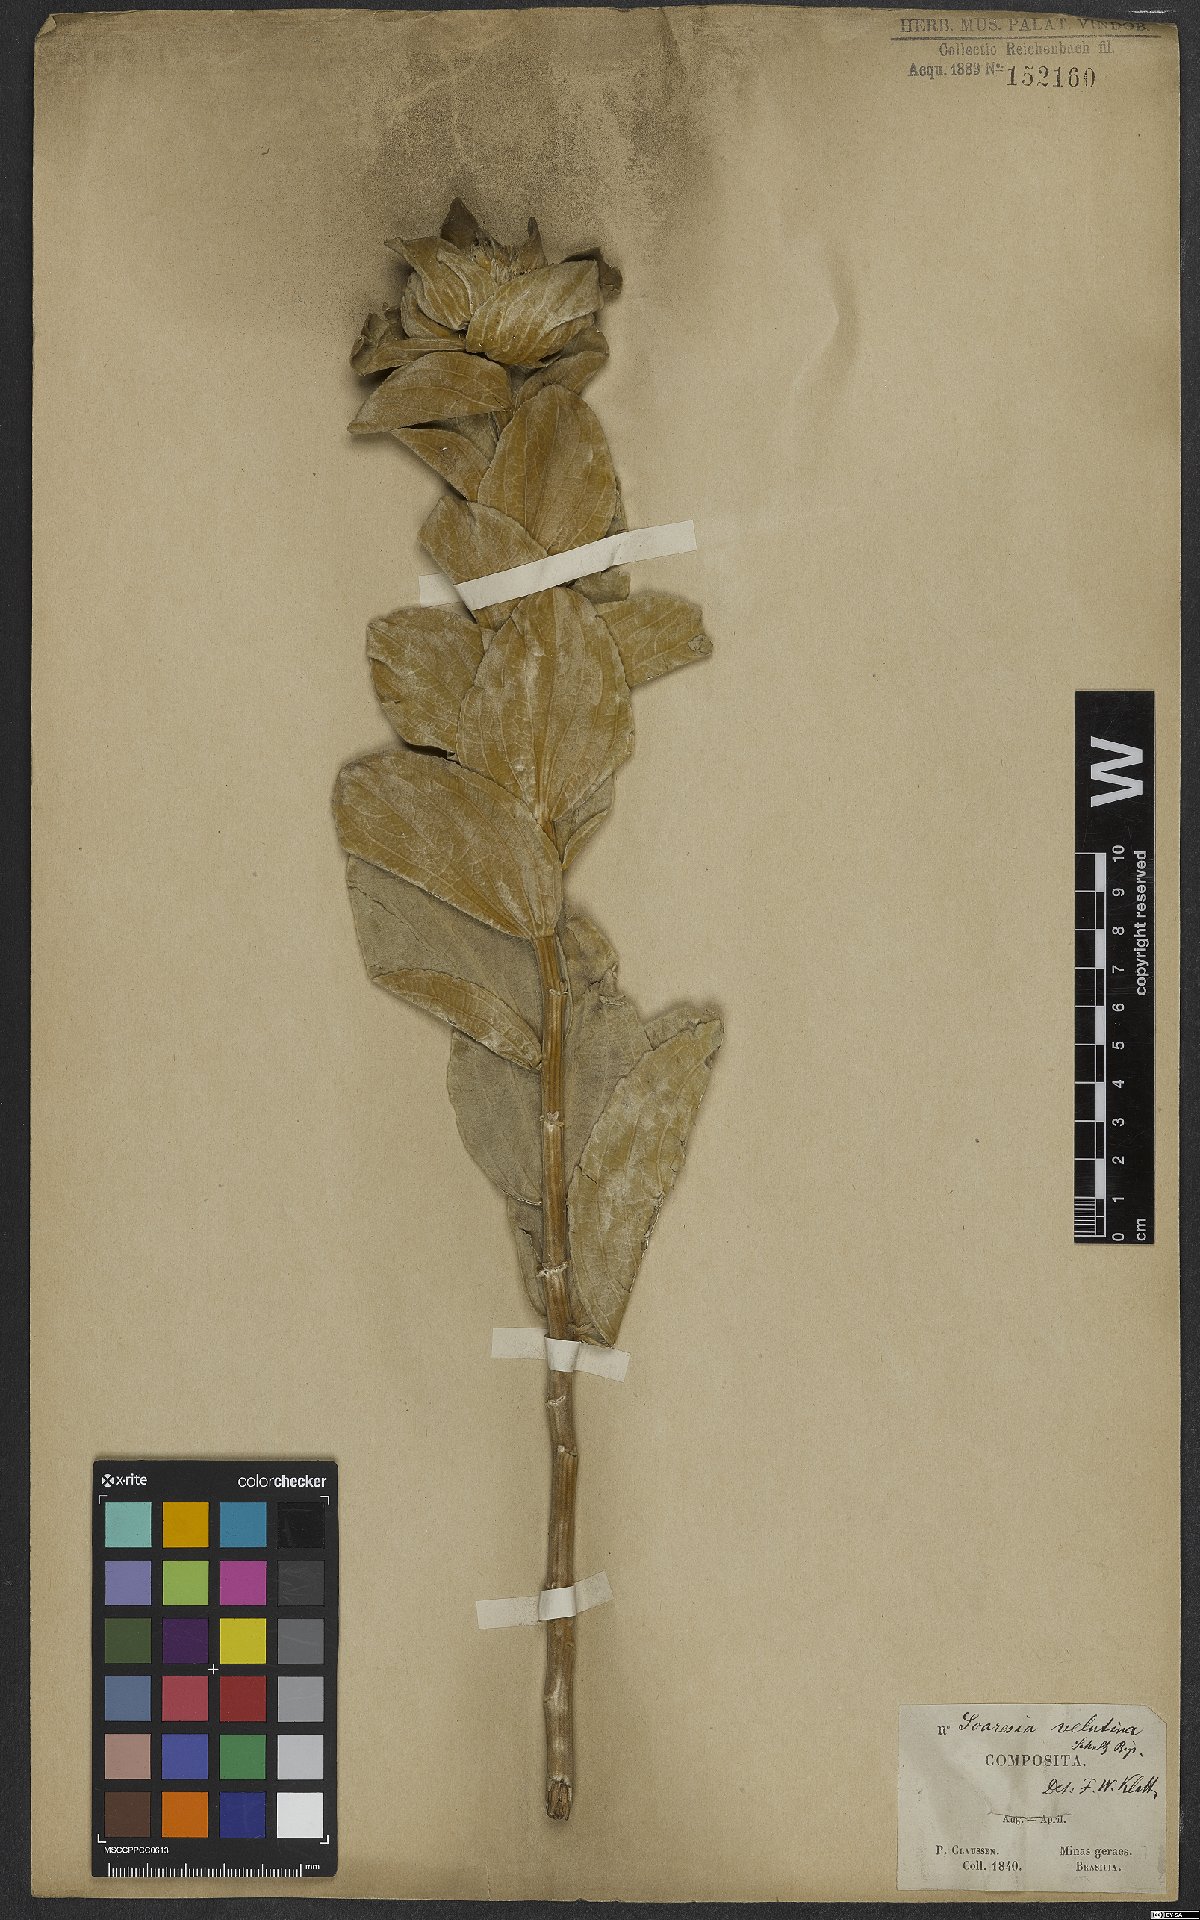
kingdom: Plantae
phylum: Tracheophyta
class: Magnoliopsida
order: Asterales
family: Asteraceae
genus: Soaresia
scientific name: Soaresia velutina
